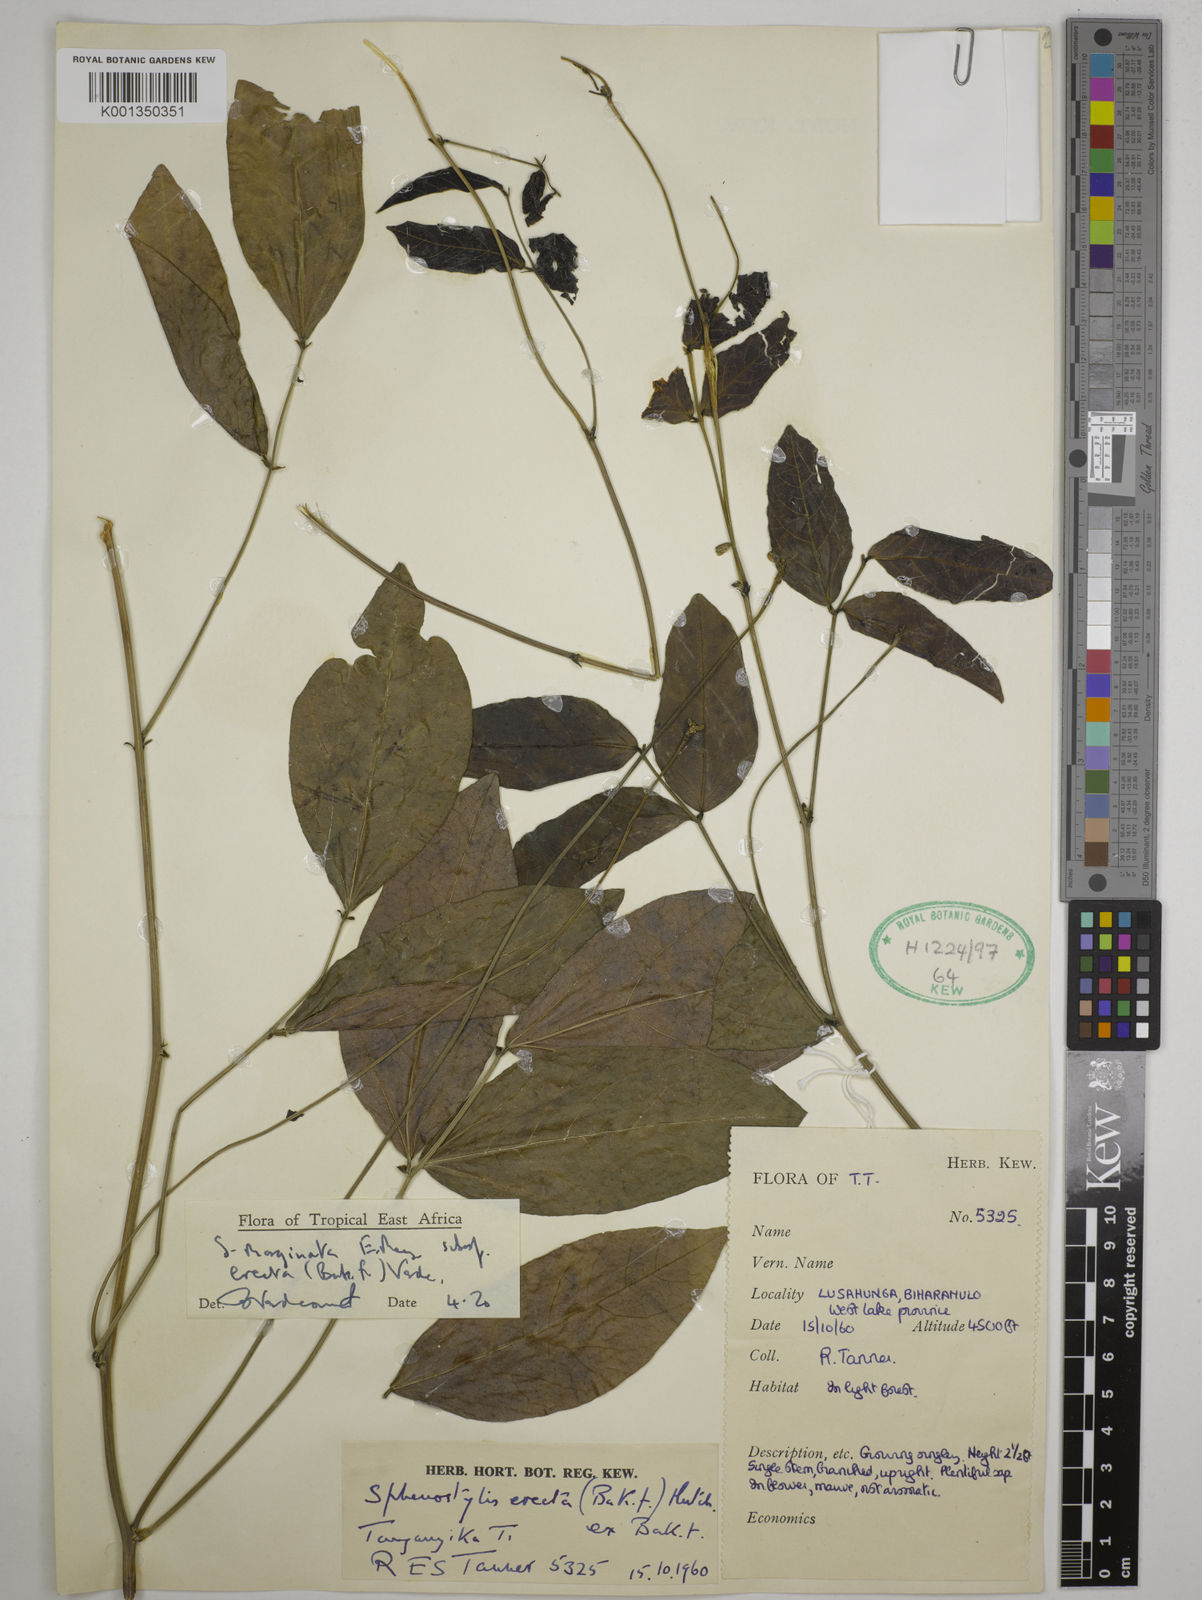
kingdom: Plantae
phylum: Tracheophyta
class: Magnoliopsida
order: Fabales
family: Fabaceae
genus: Sphenostylis
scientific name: Sphenostylis erecta
